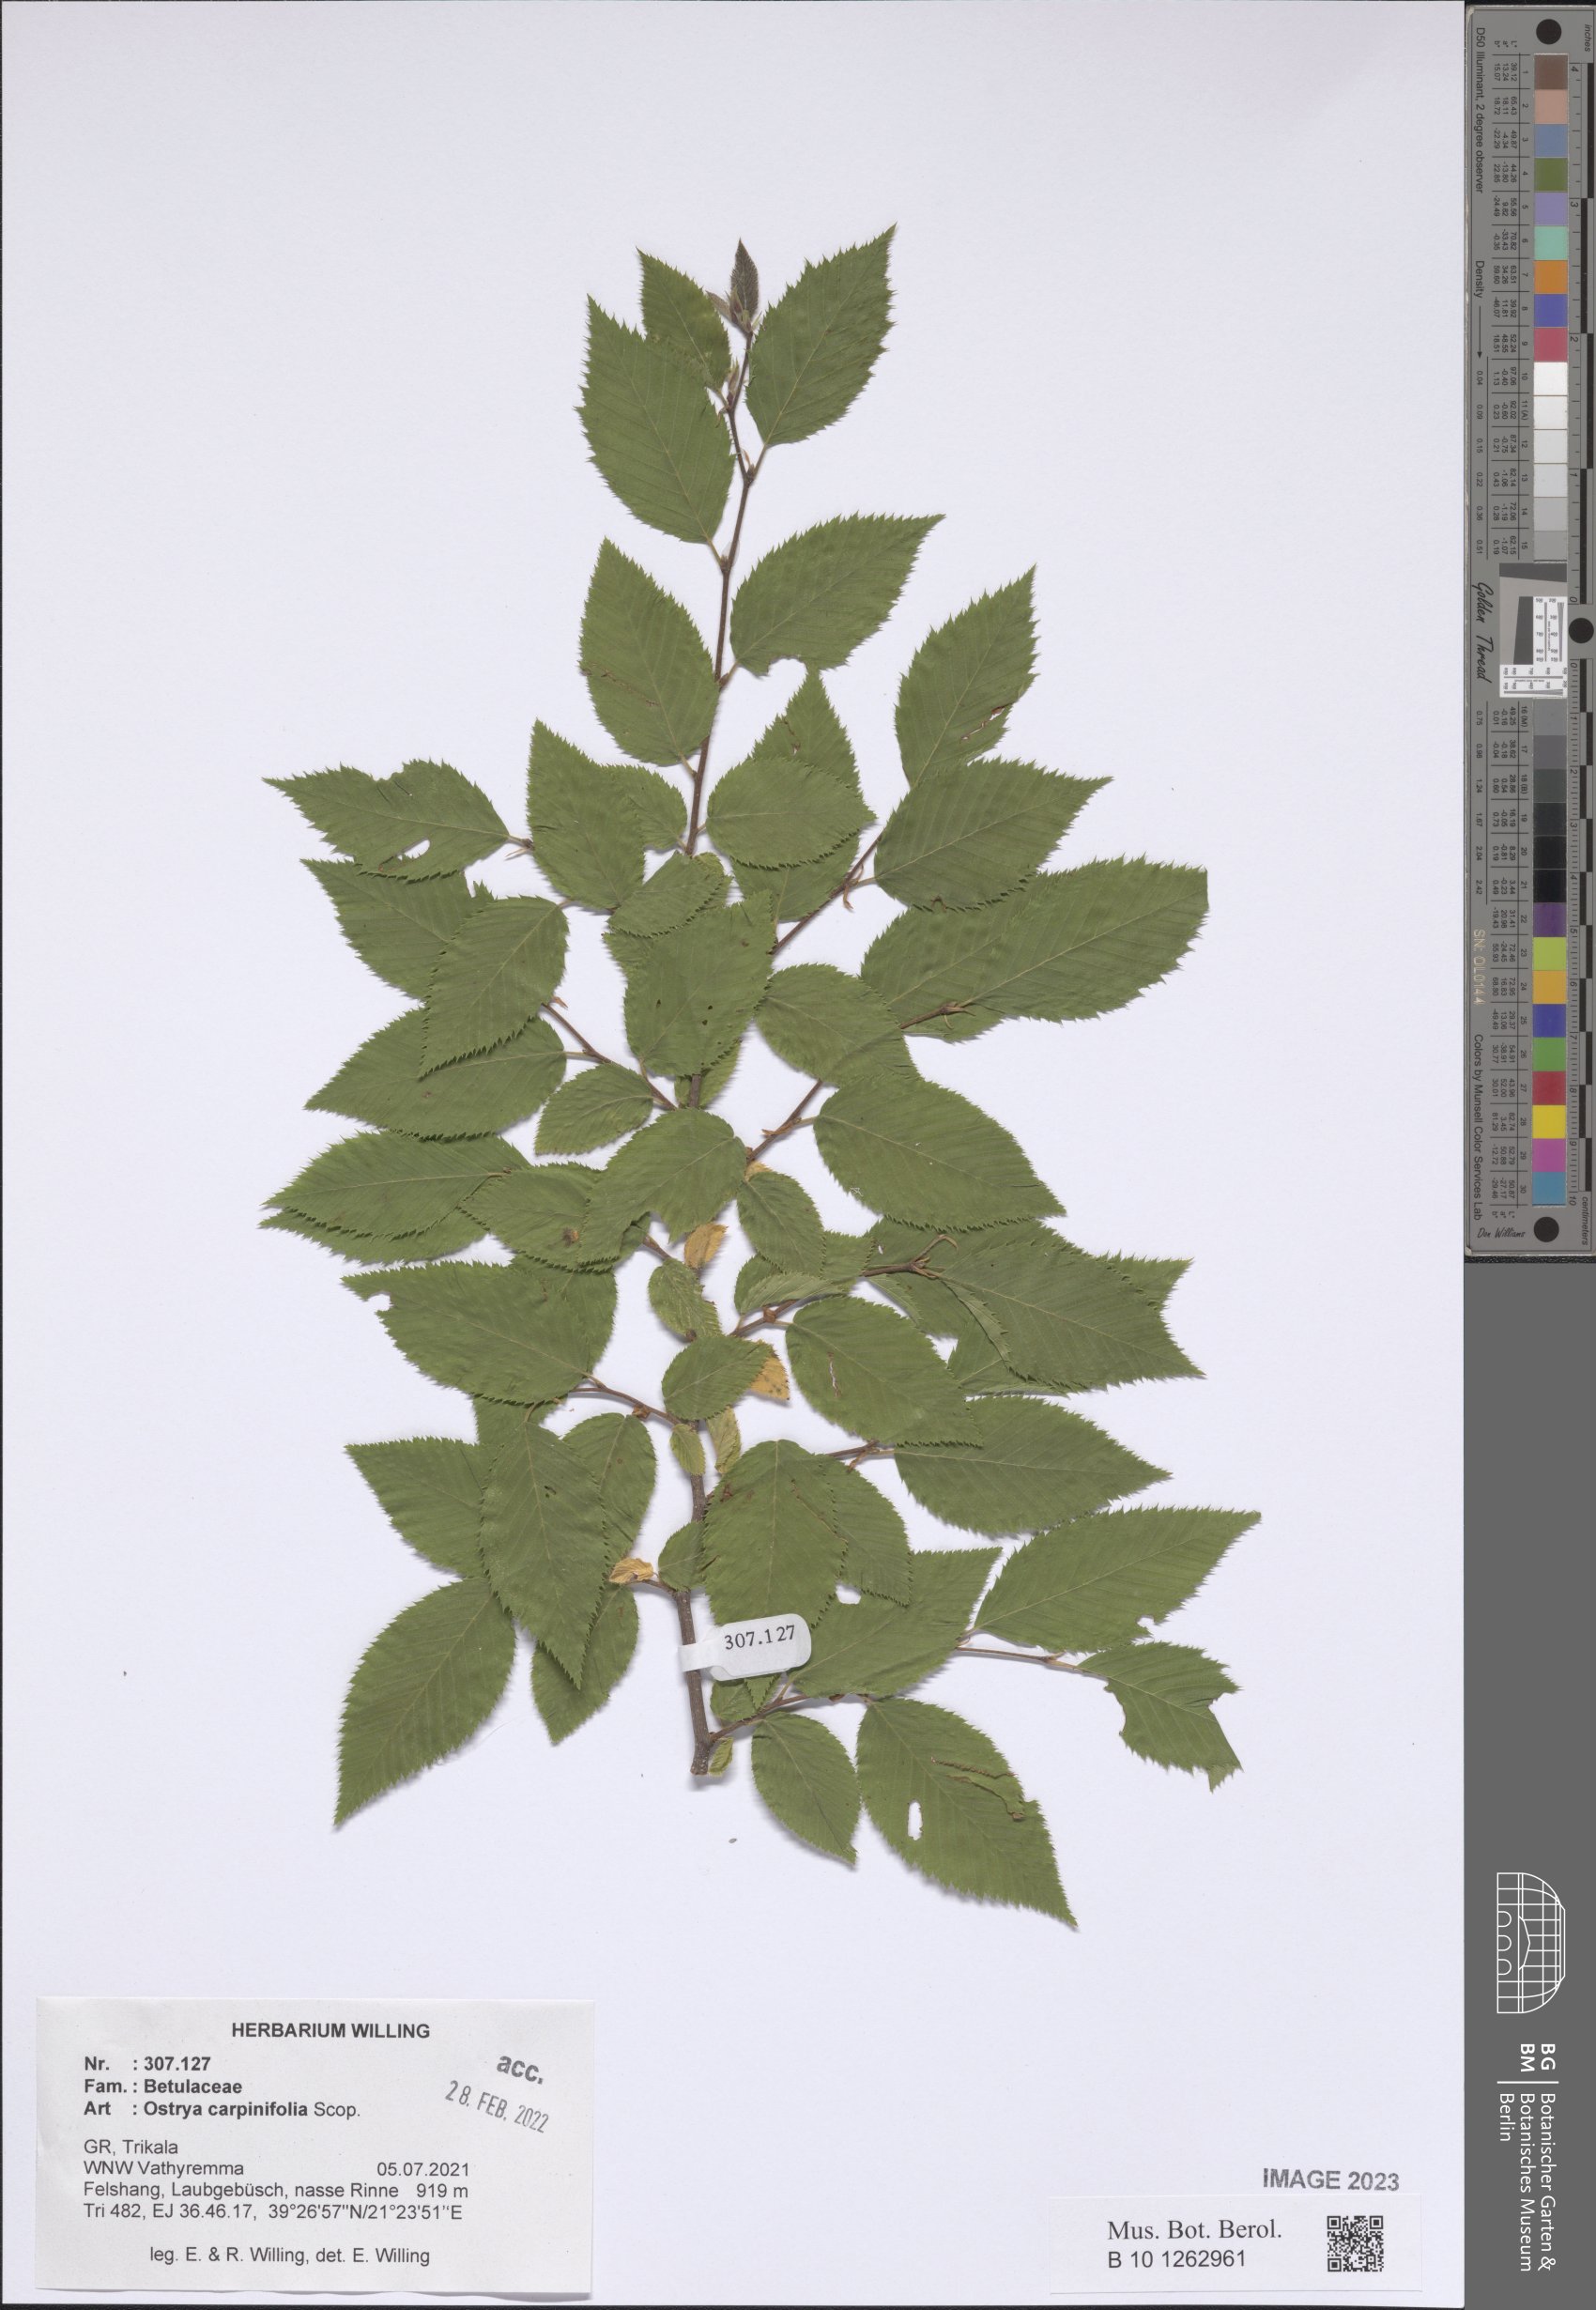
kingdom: Plantae
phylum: Tracheophyta
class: Magnoliopsida
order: Fagales
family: Betulaceae
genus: Ostrya
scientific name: Ostrya carpinifolia
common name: European hop-hornbeam
